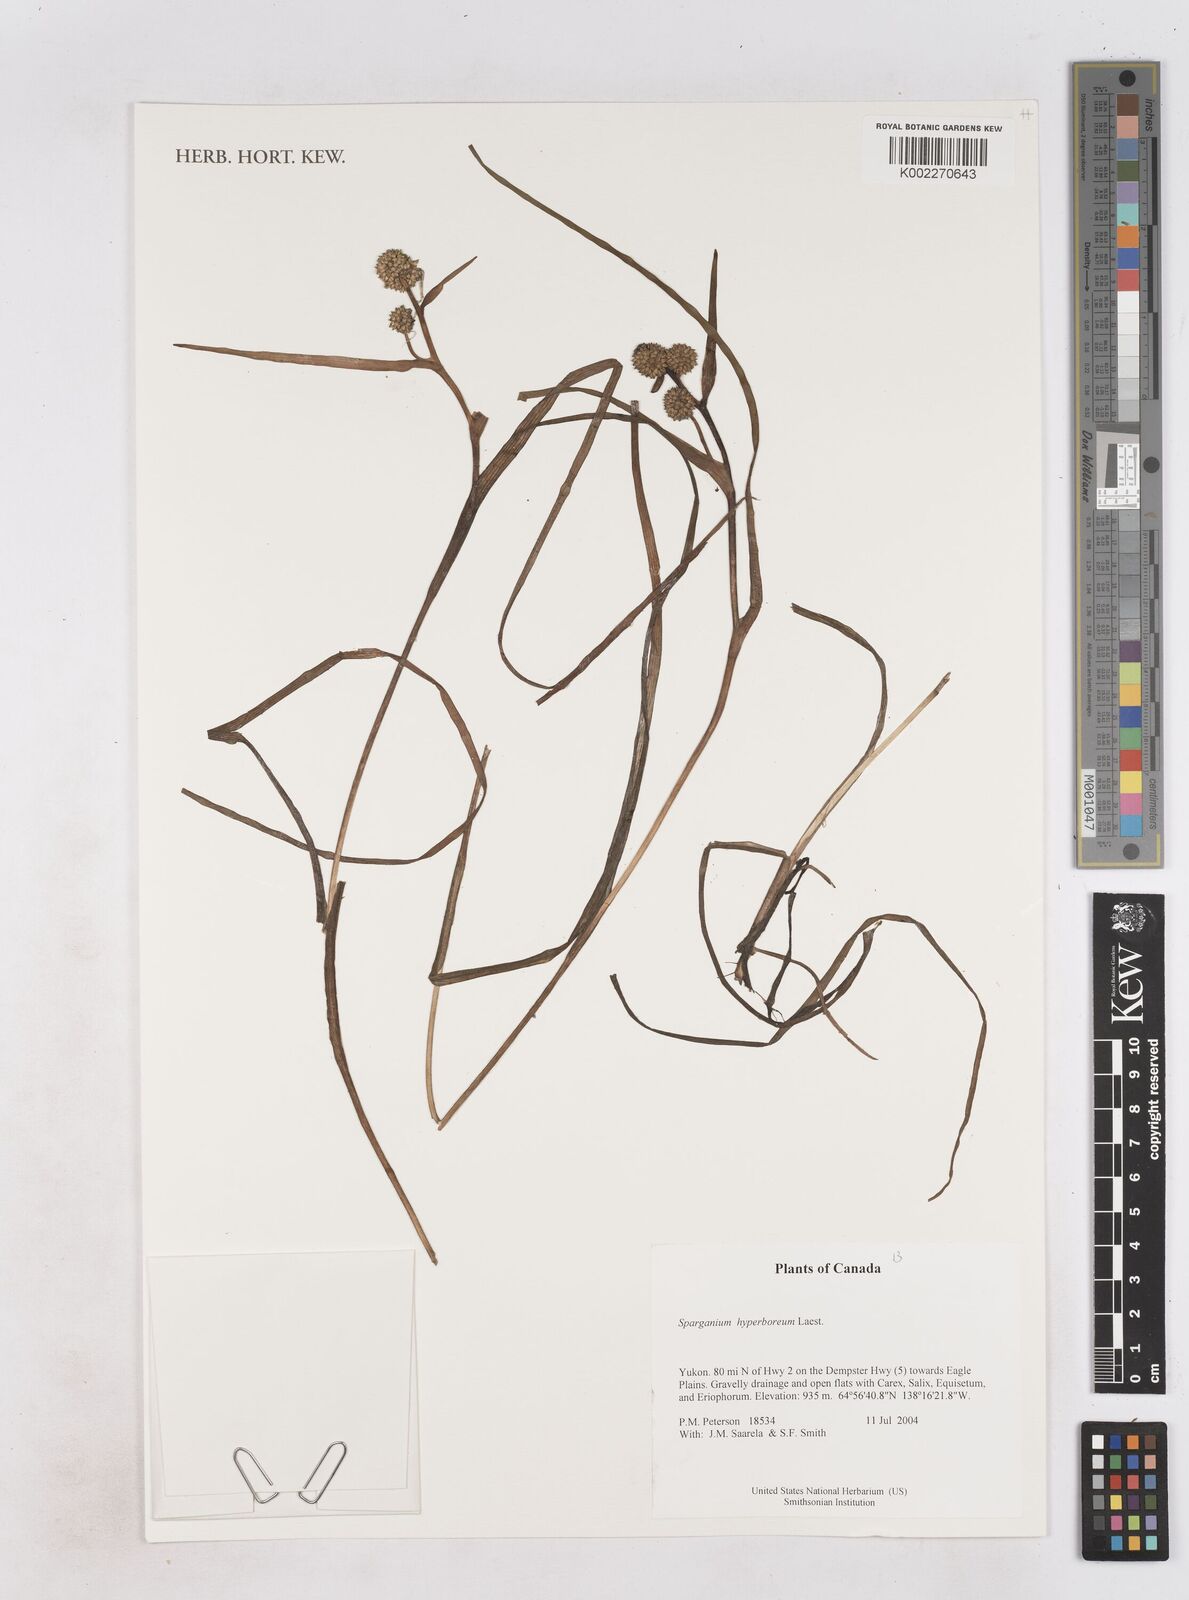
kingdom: Plantae
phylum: Tracheophyta
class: Liliopsida
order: Poales
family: Typhaceae
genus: Sparganium
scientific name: Sparganium hyperboreum
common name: Arctic burreed
